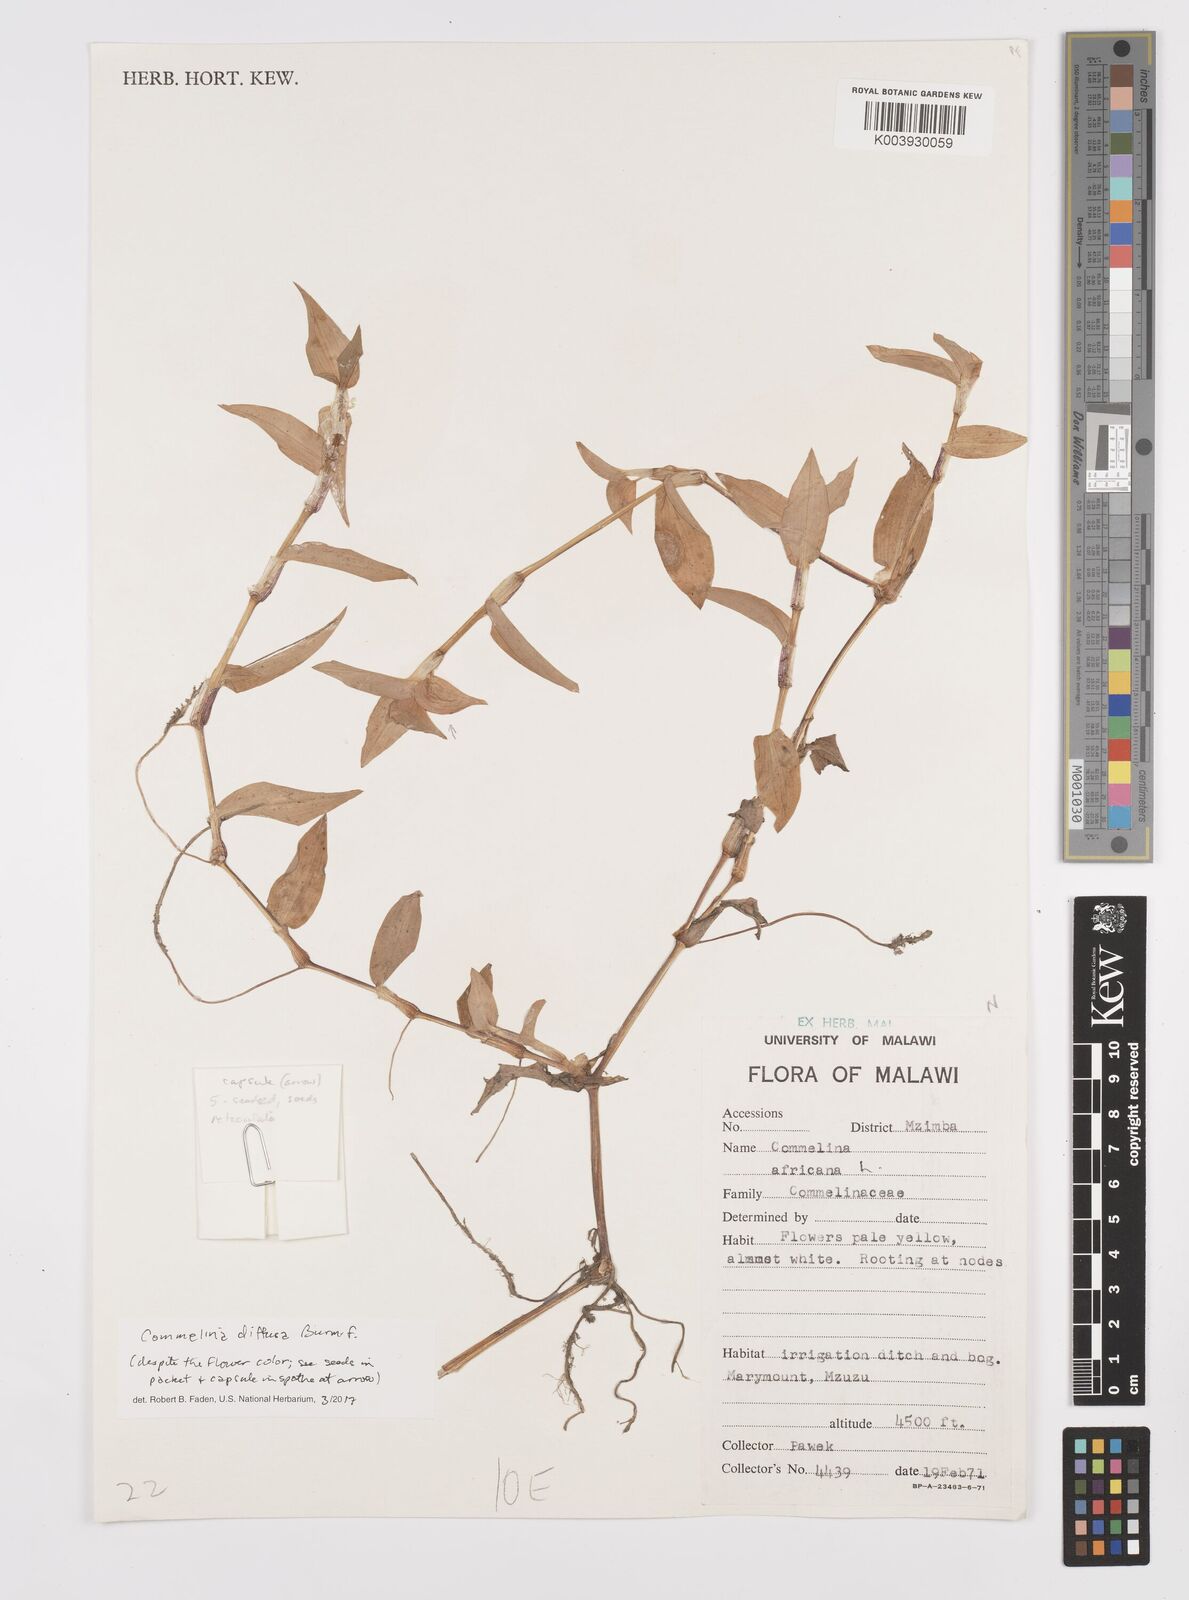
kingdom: Plantae
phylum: Tracheophyta
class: Liliopsida
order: Commelinales
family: Commelinaceae
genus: Commelina
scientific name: Commelina diffusa
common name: Climbing dayflower
